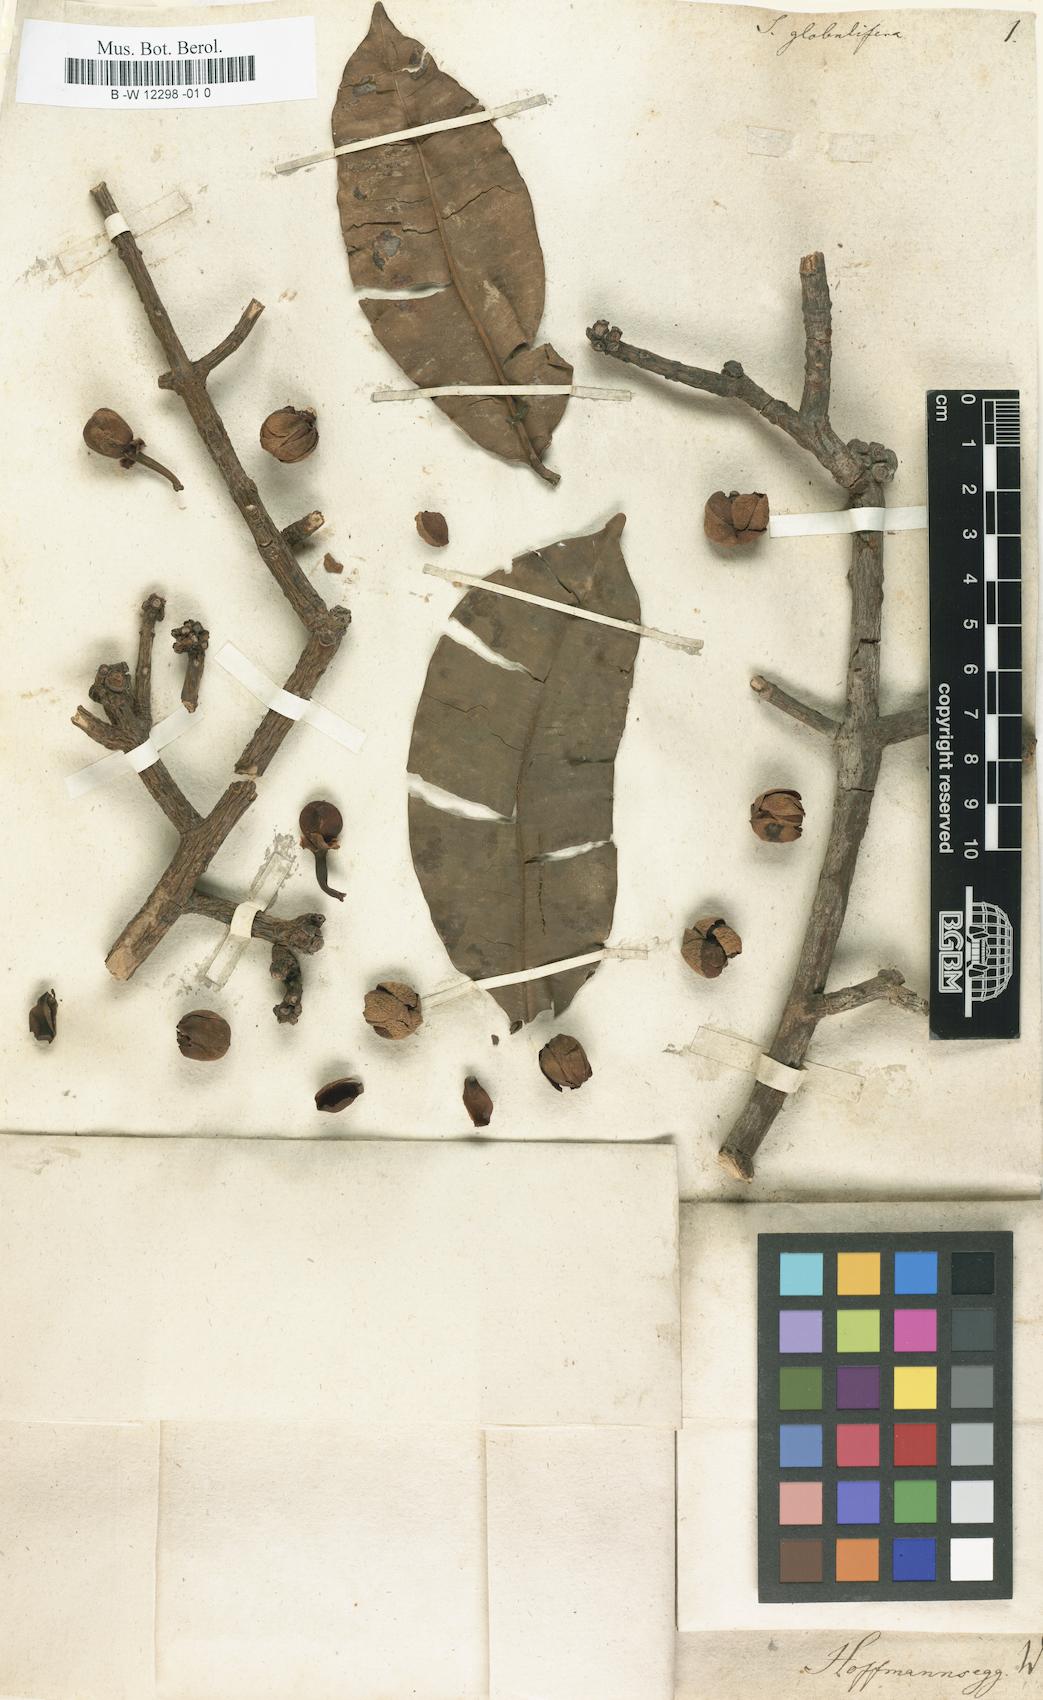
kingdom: Plantae
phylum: Tracheophyta
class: Magnoliopsida
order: Malpighiales
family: Clusiaceae
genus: Symphonia
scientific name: Symphonia globulifera
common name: Boarwood
